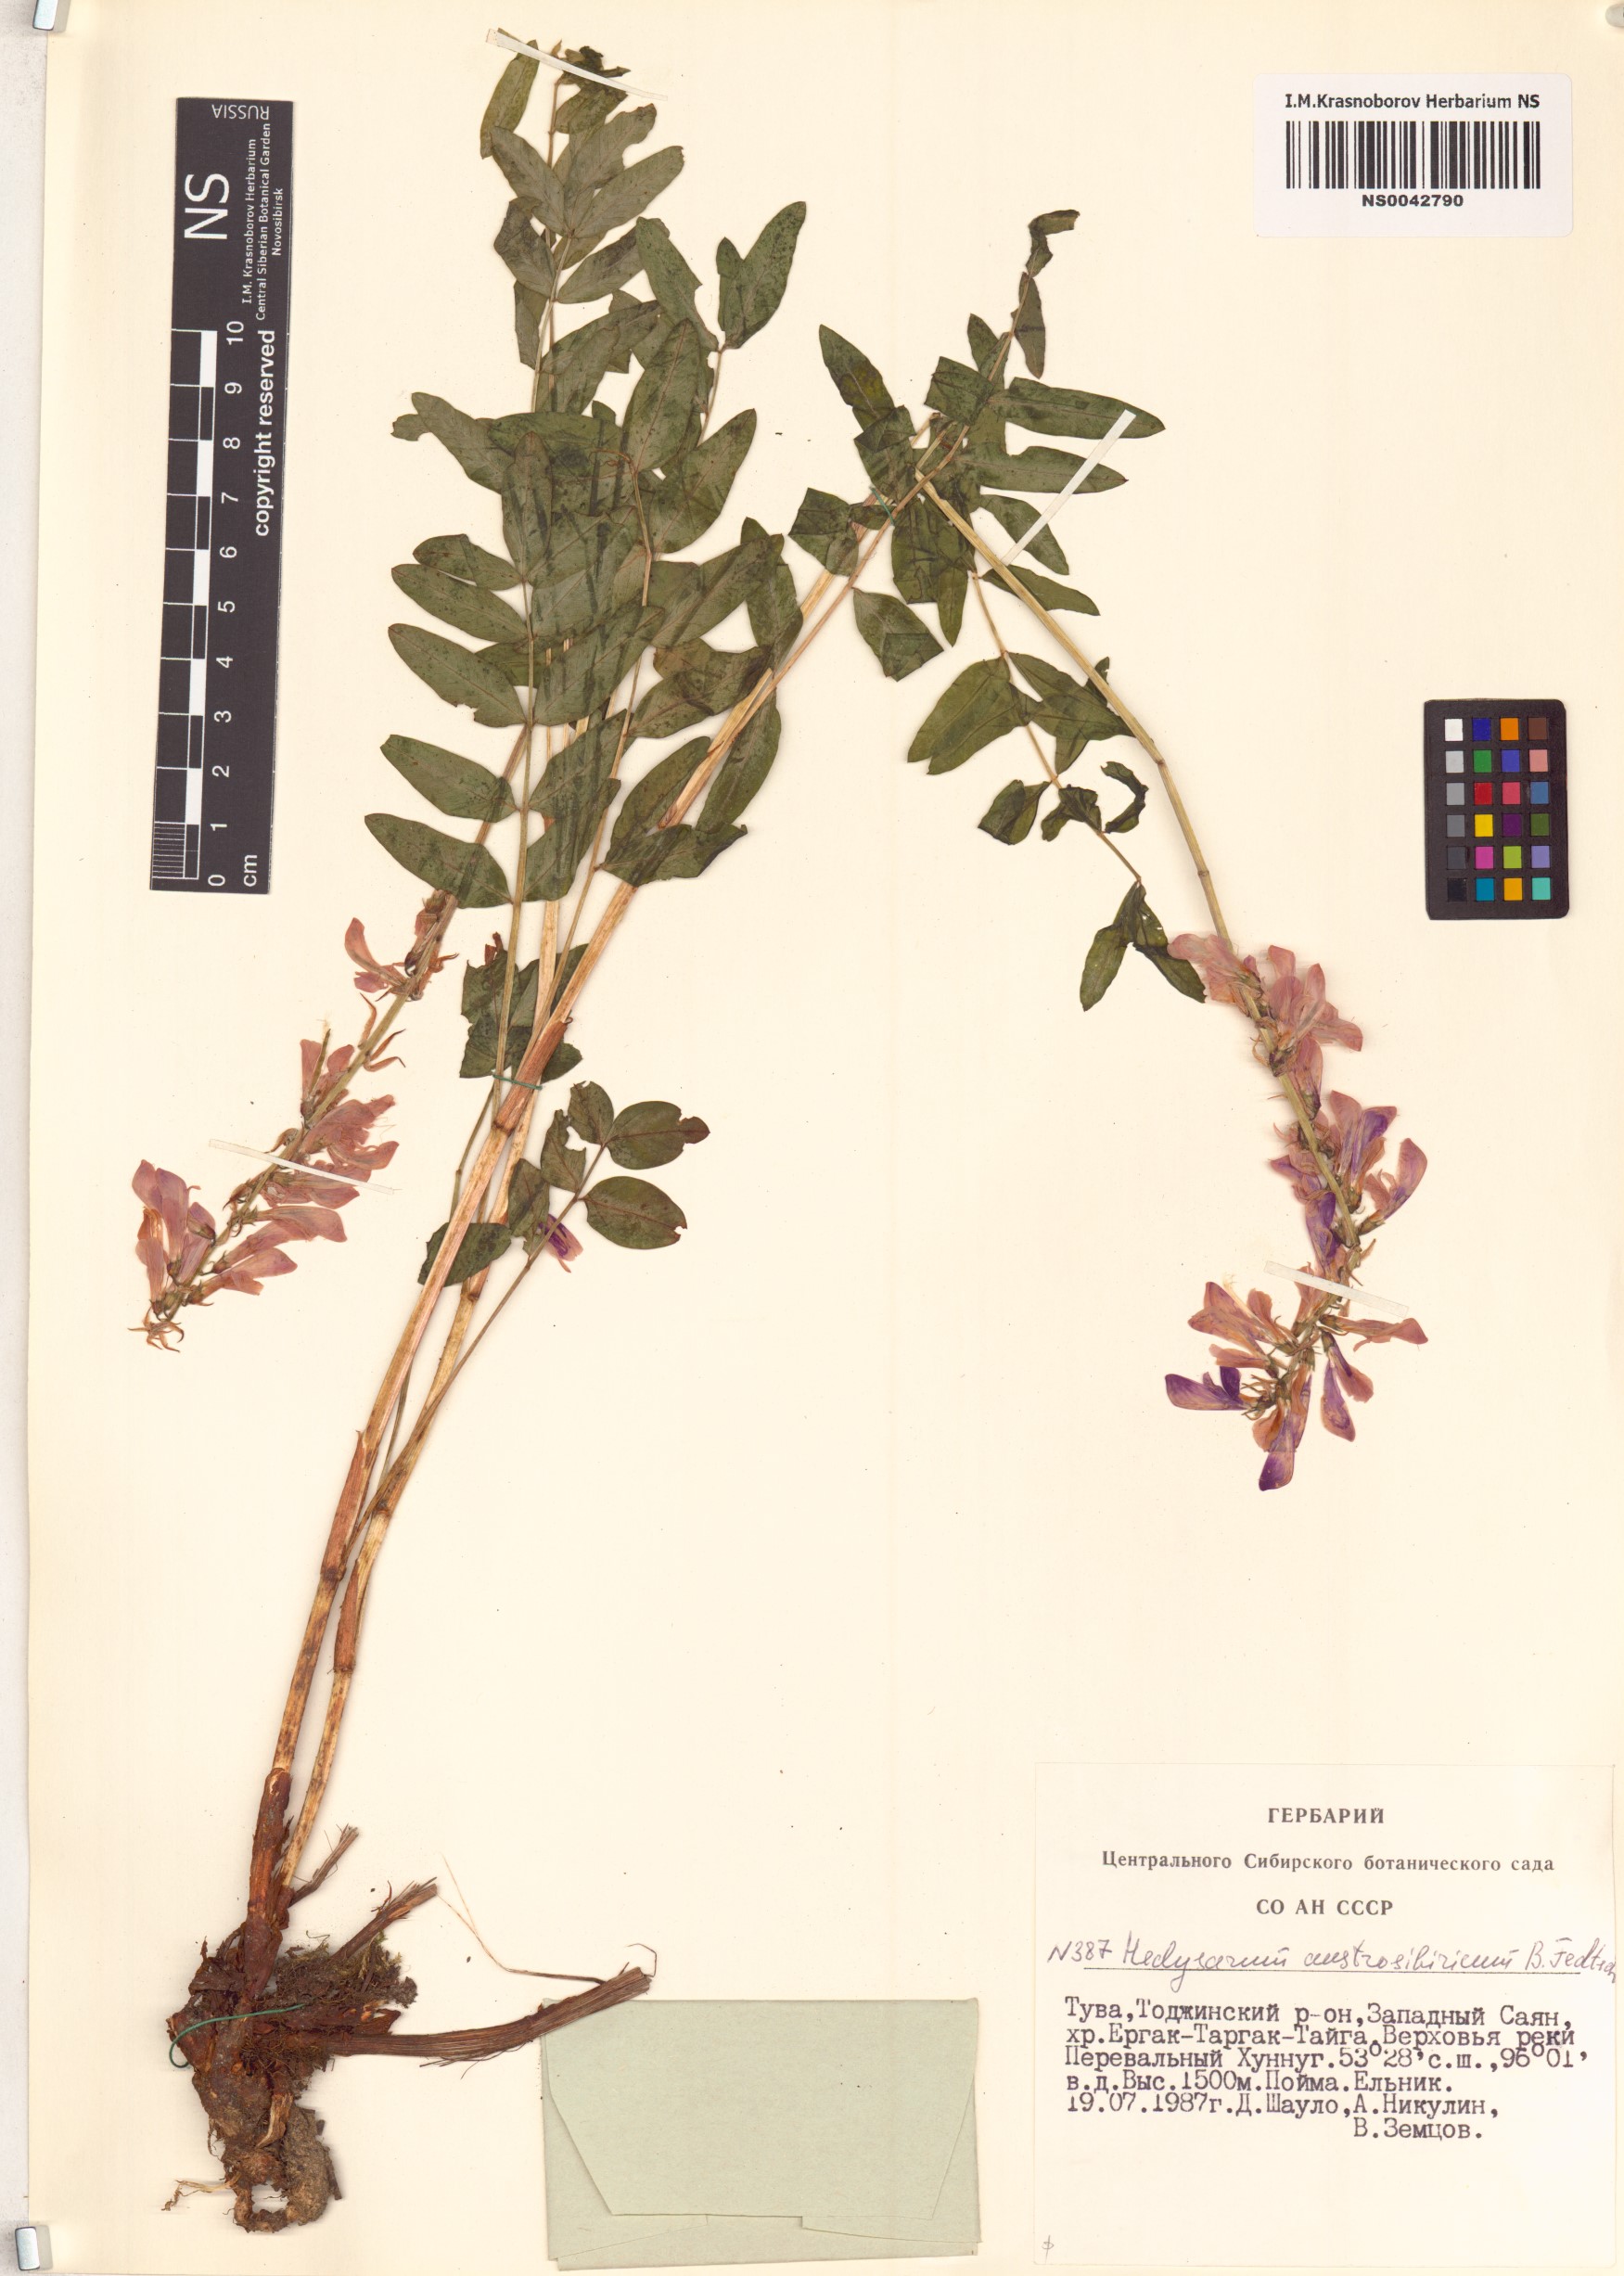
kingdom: Plantae
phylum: Tracheophyta
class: Magnoliopsida
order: Fabales
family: Fabaceae
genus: Hedysarum
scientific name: Hedysarum neglectum
